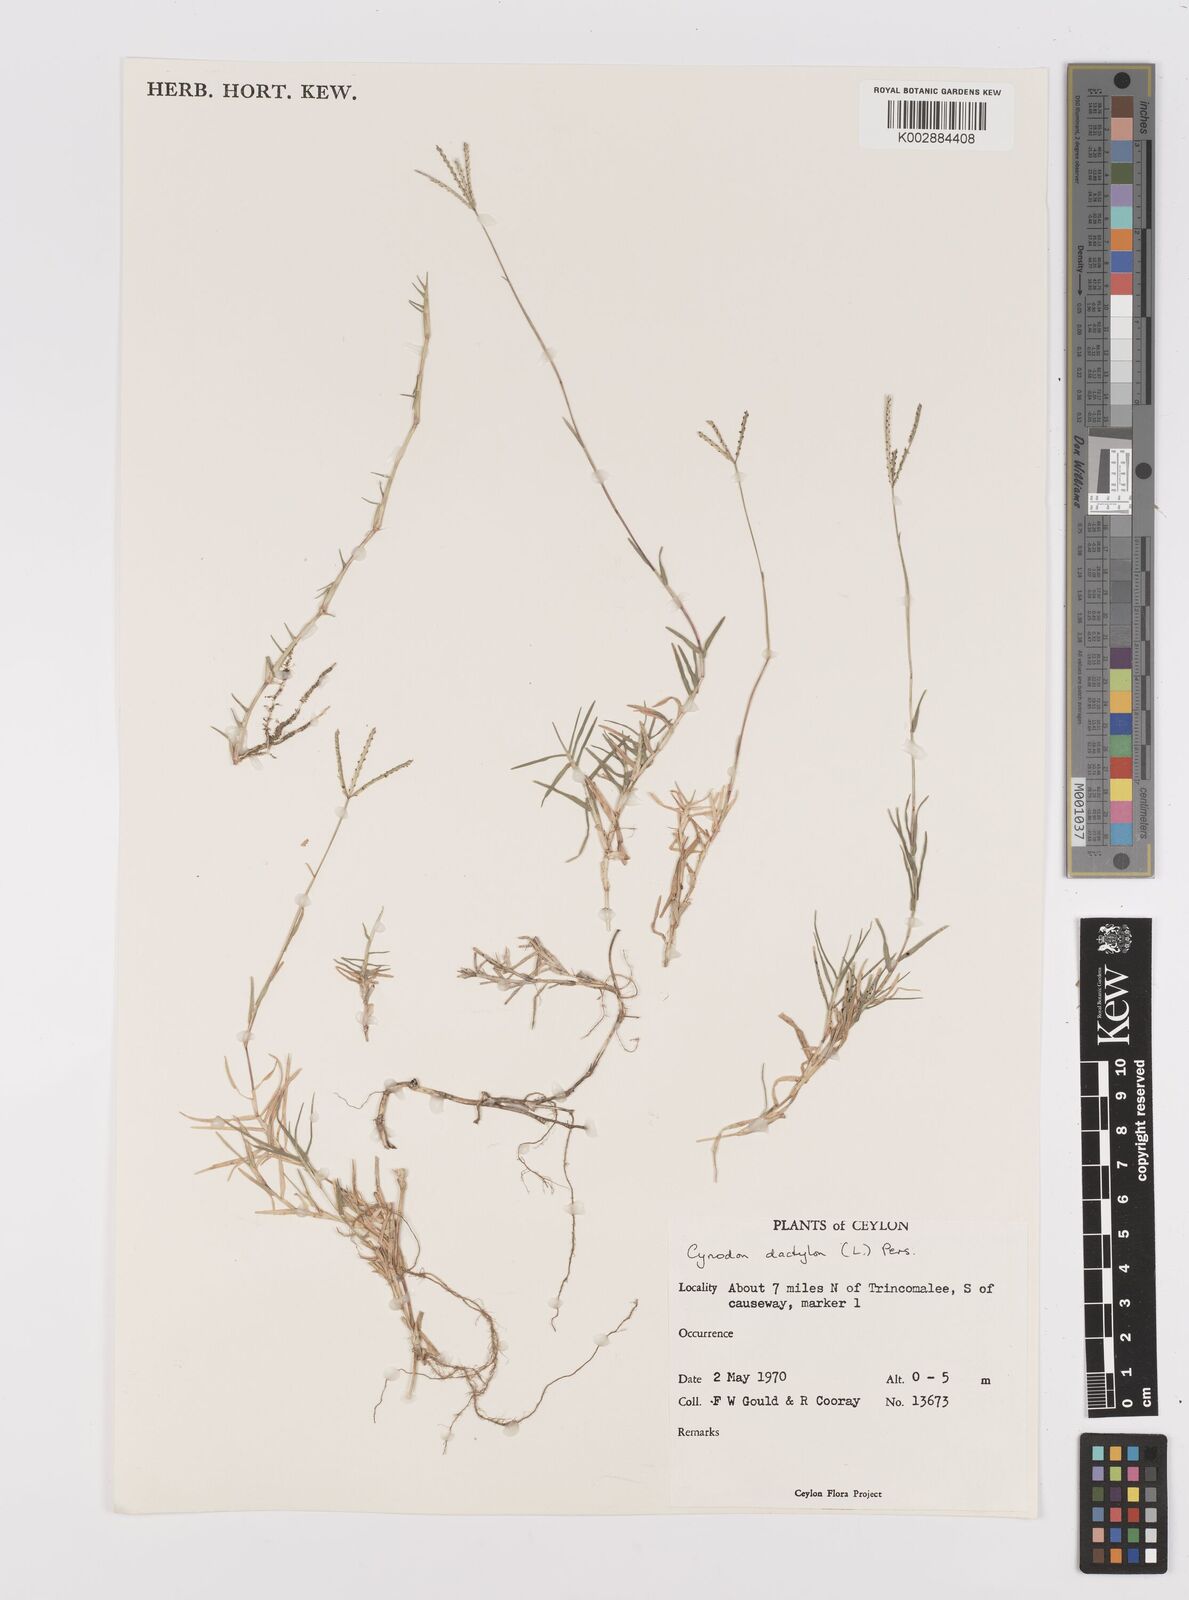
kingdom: Plantae
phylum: Tracheophyta
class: Liliopsida
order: Poales
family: Poaceae
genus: Cynodon
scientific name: Cynodon dactylon
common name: Bermuda grass
